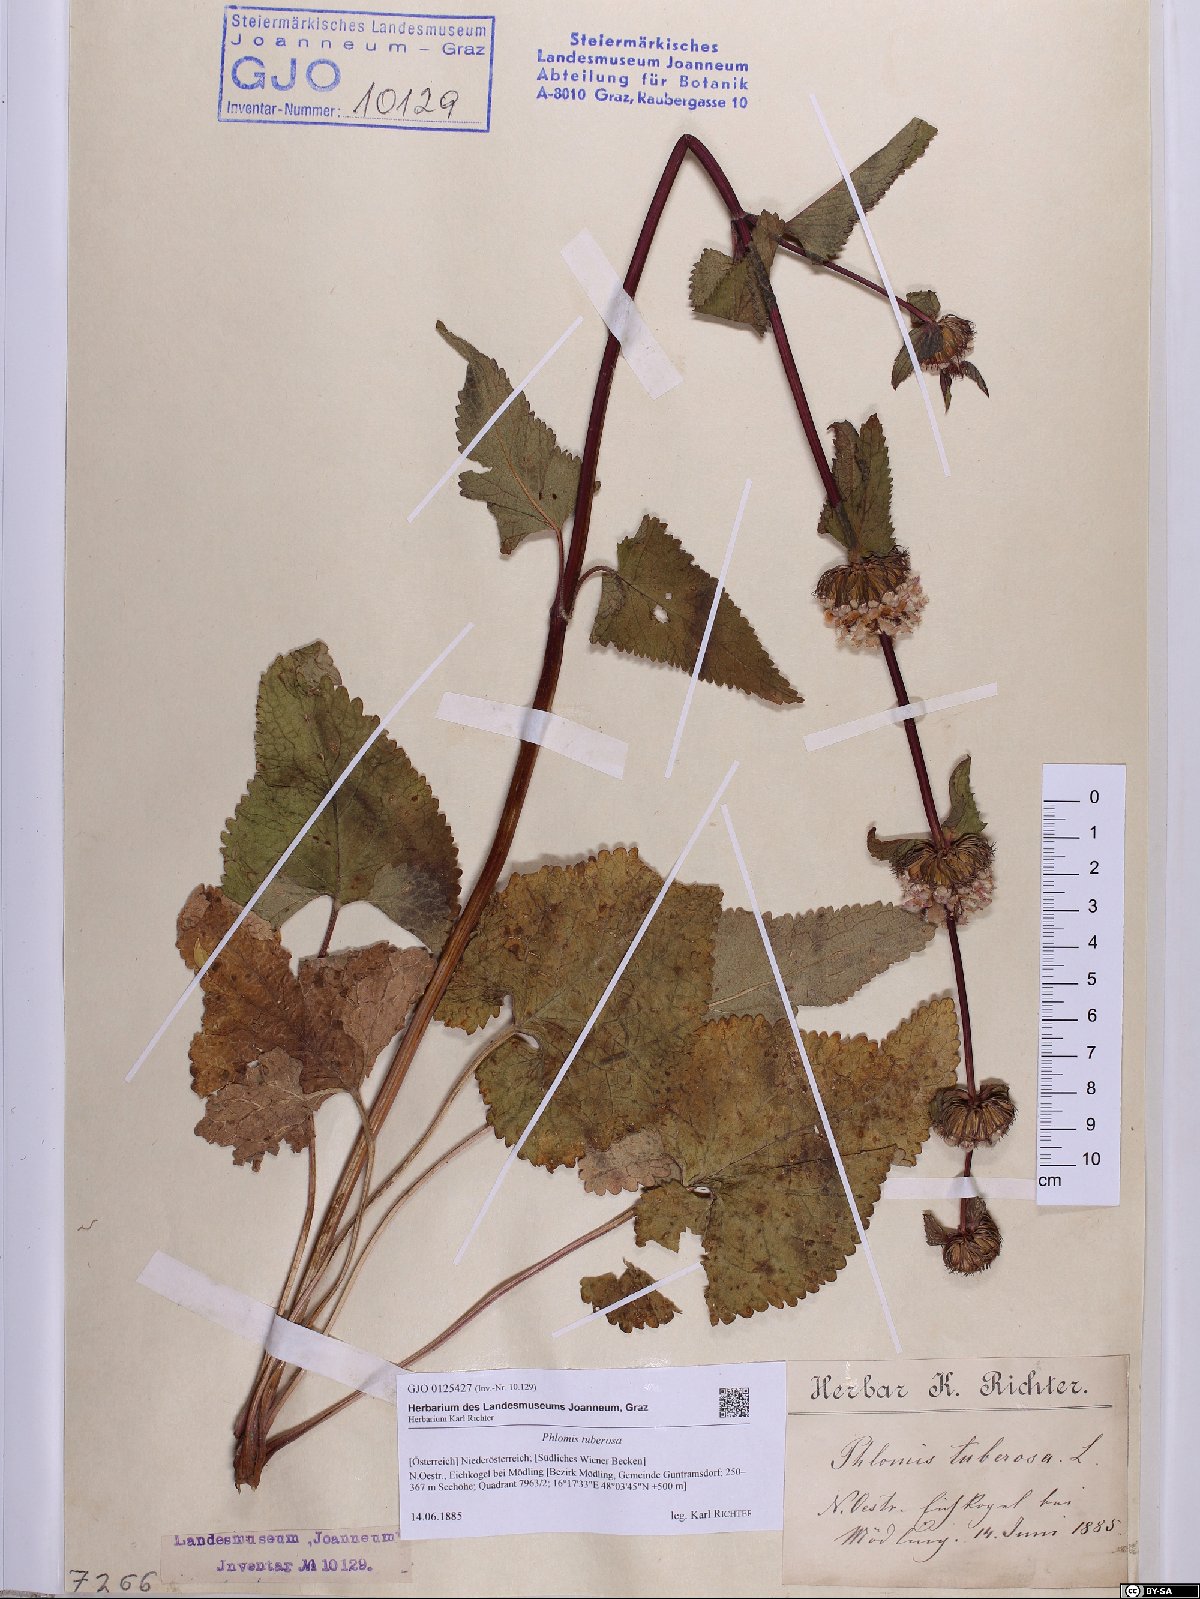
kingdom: Plantae
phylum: Tracheophyta
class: Magnoliopsida
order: Lamiales
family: Lamiaceae
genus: Phlomoides
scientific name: Phlomoides tuberosa
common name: Tuberous jerusalem sage
